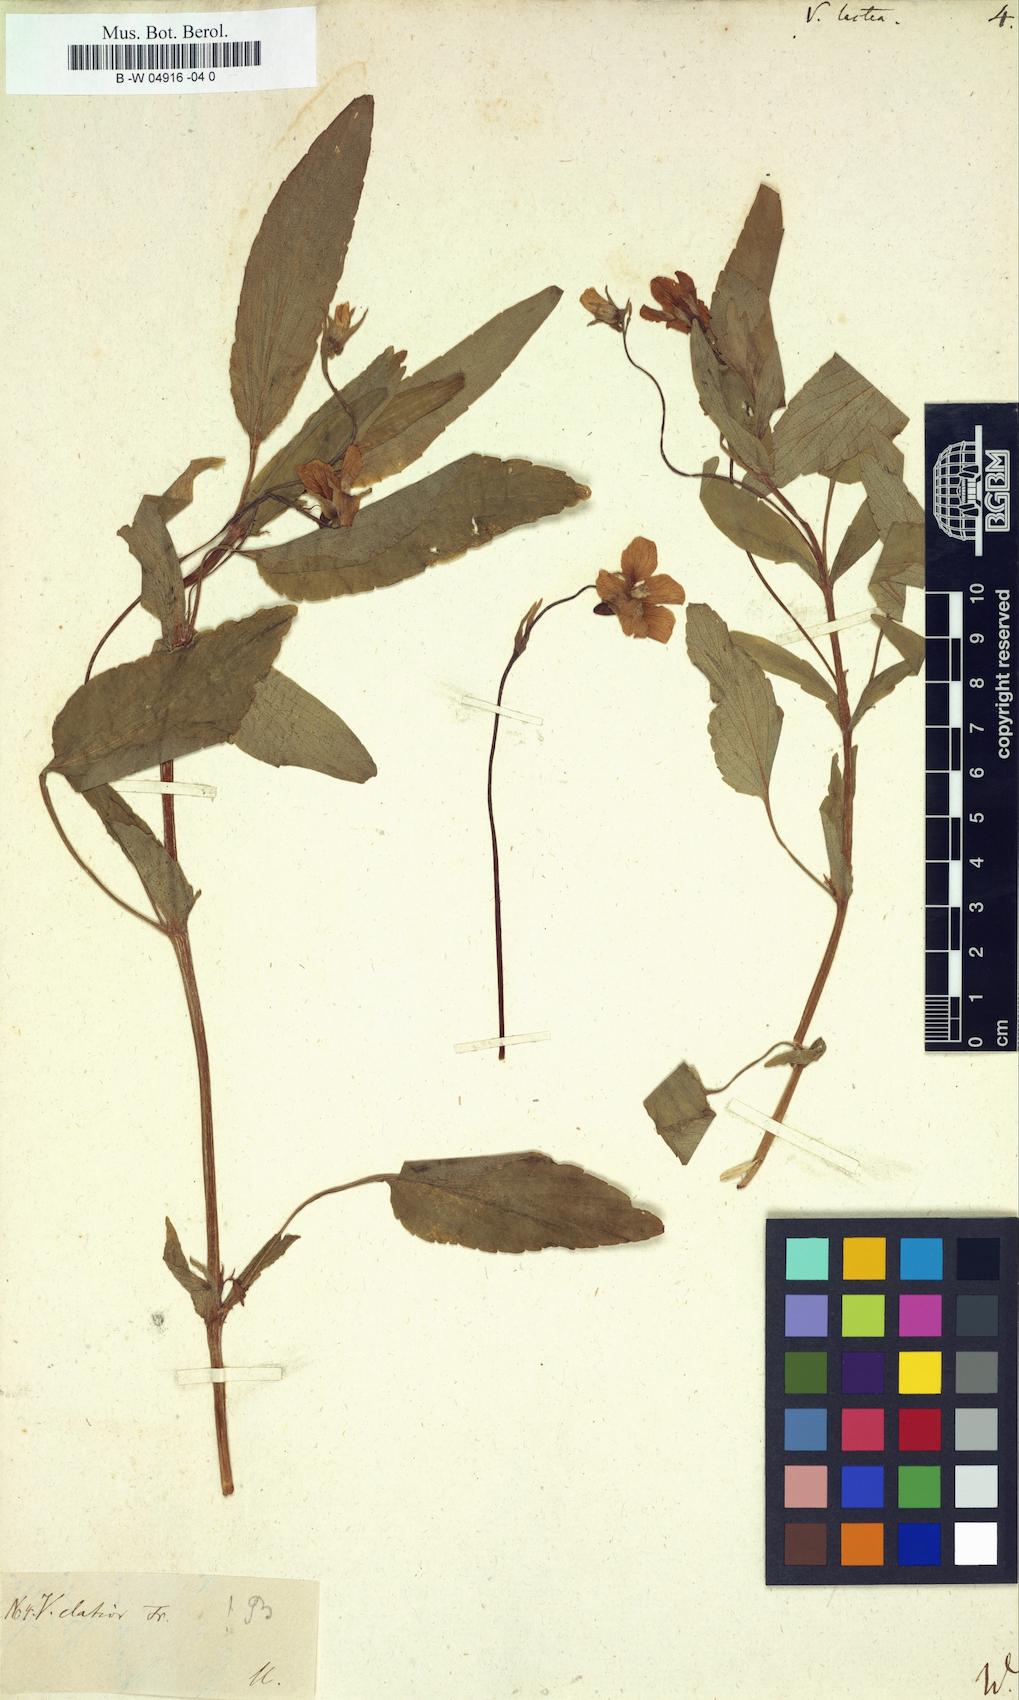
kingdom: Plantae
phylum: Tracheophyta
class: Magnoliopsida
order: Malpighiales
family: Violaceae
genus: Viola
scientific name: Viola lactea
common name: Pale dog-violet
